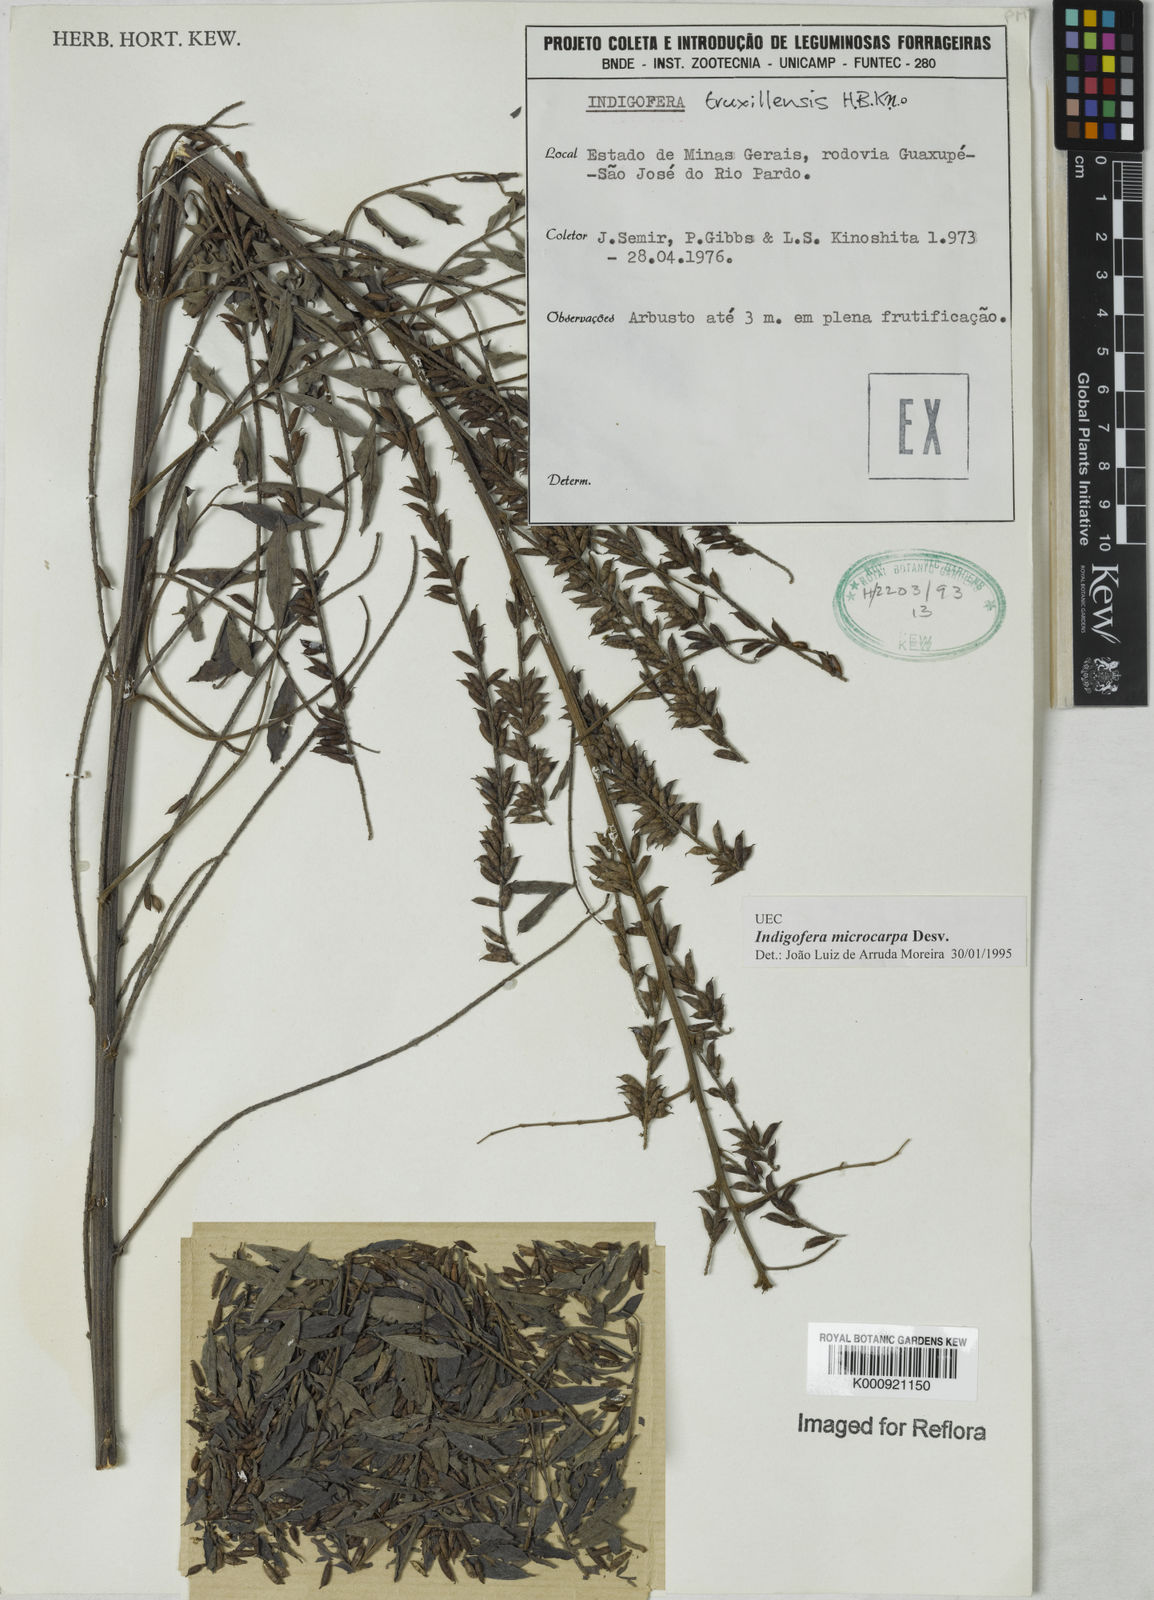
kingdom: Plantae
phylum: Tracheophyta
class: Magnoliopsida
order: Fabales
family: Fabaceae
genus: Indigofera
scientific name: Indigofera microcarpa
